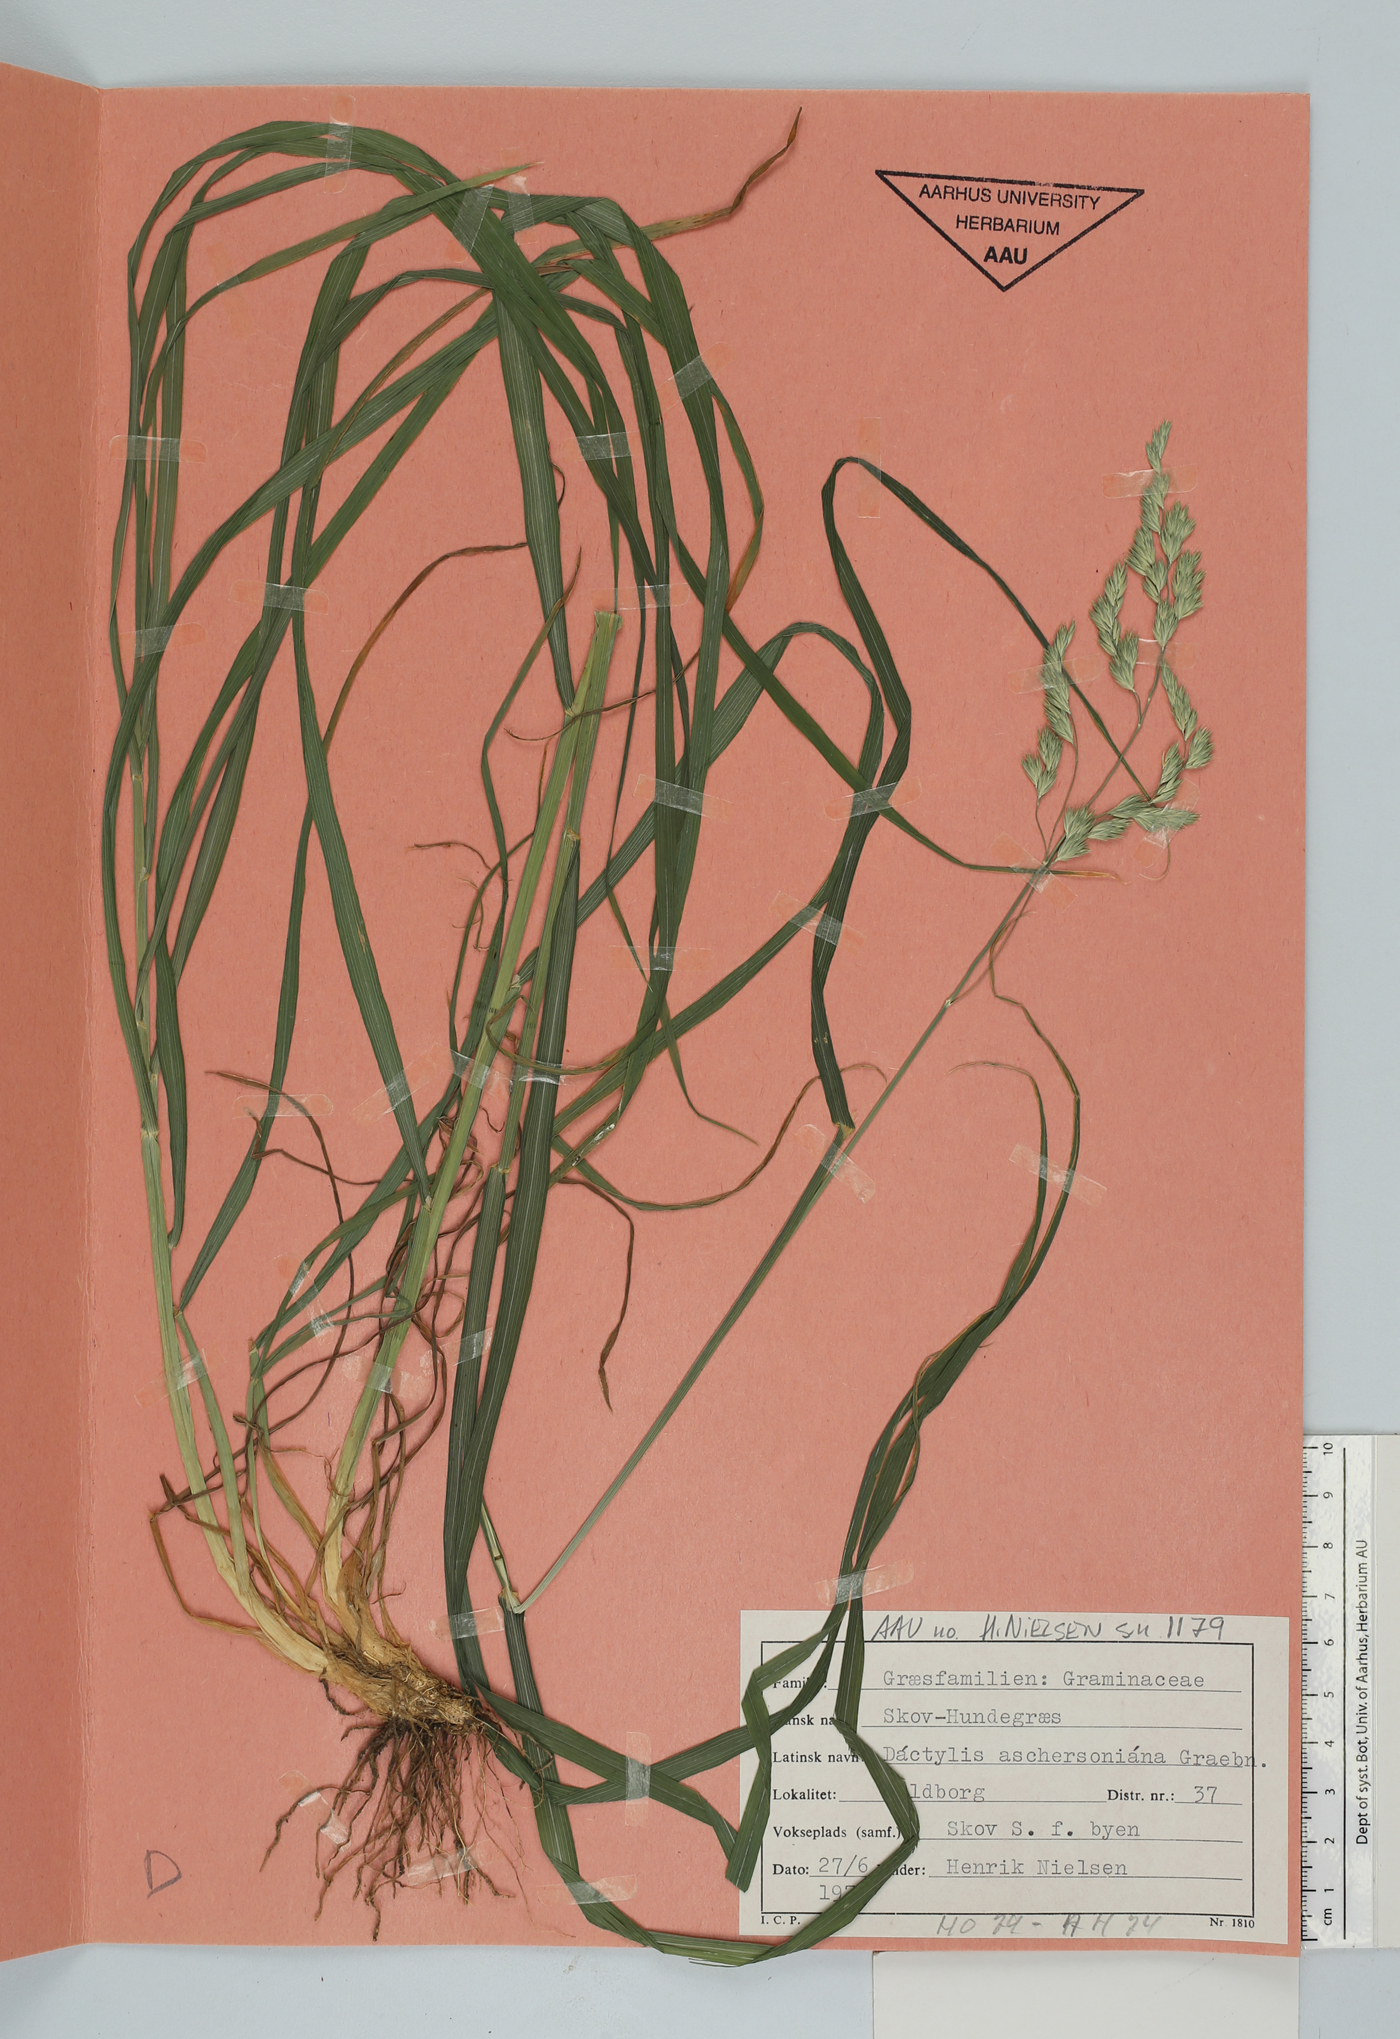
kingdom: Plantae
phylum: Tracheophyta
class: Liliopsida
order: Poales
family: Poaceae
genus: Dactylis
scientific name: Dactylis glomerata
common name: Orchardgrass
